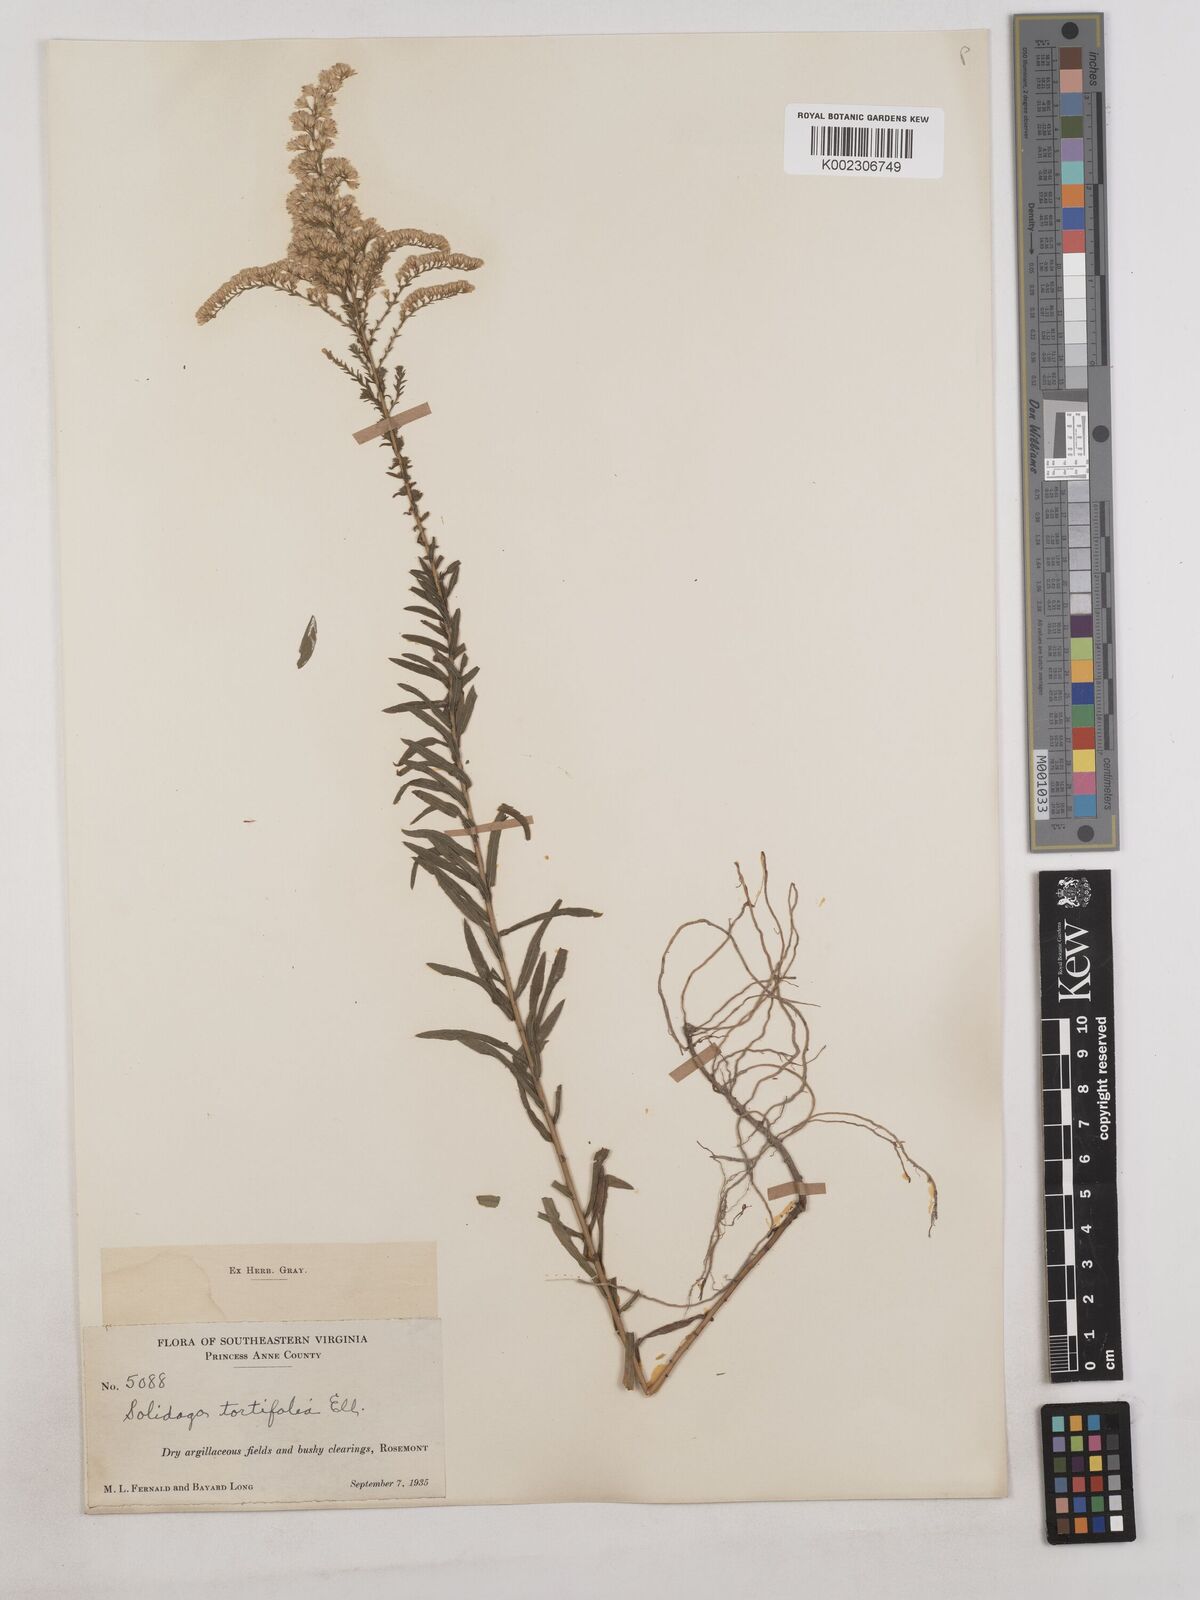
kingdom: Plantae
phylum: Tracheophyta
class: Magnoliopsida
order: Asterales
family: Asteraceae
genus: Solidago
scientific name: Solidago tortifolia
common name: Twisted-leaf goldenrod
